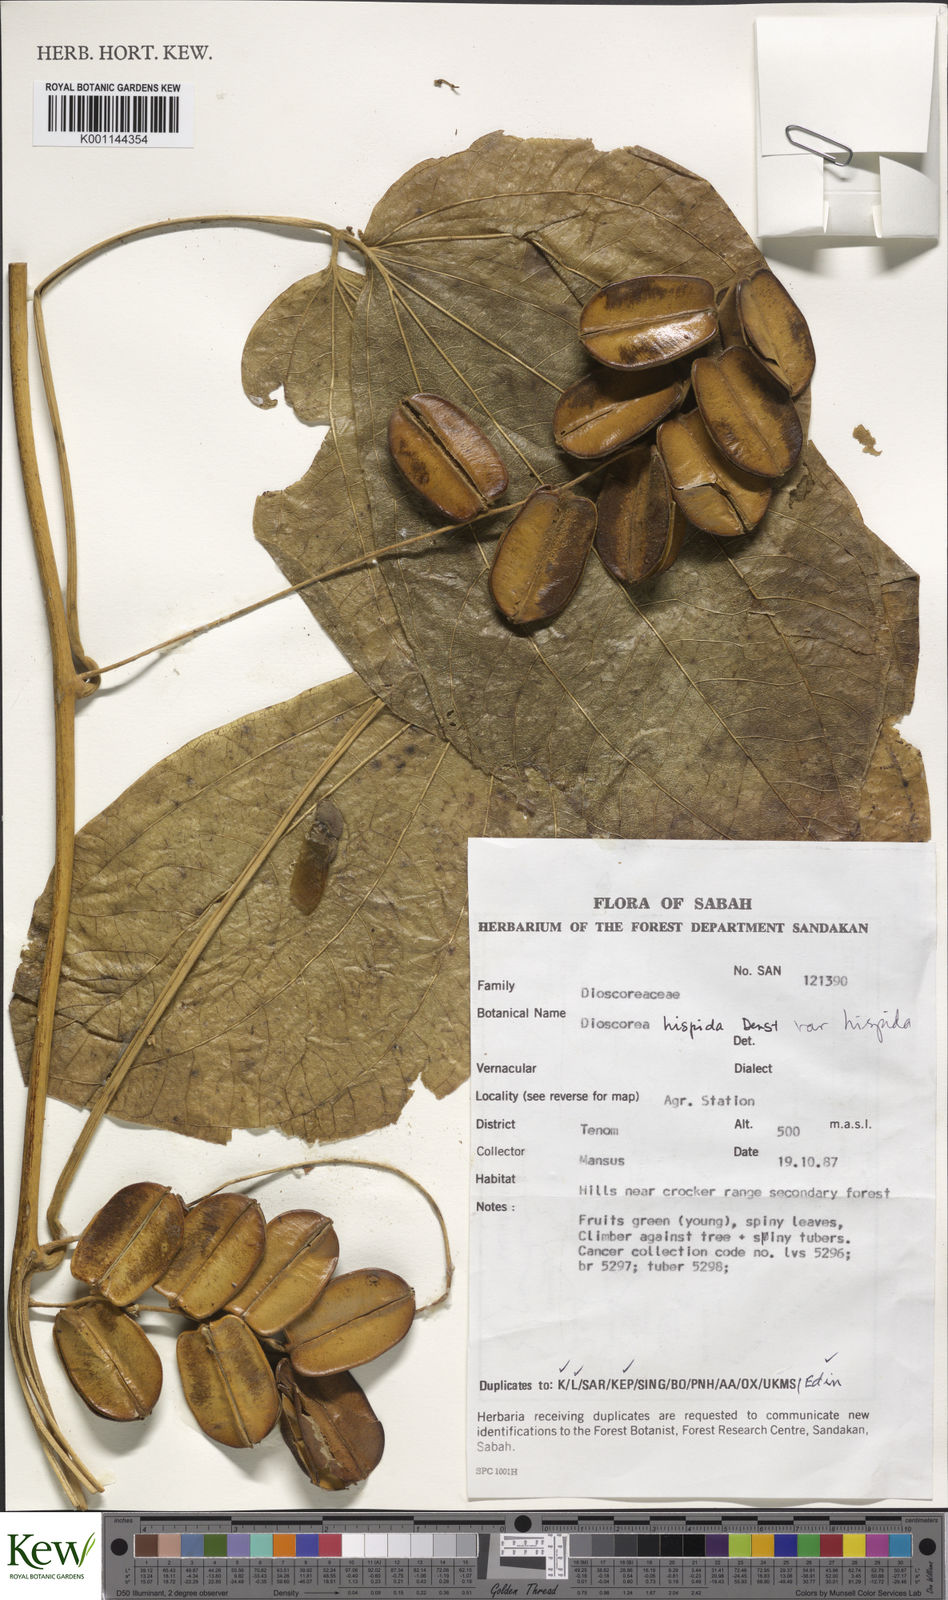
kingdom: Plantae
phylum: Tracheophyta
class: Liliopsida
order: Dioscoreales
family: Dioscoreaceae
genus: Dioscorea
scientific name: Dioscorea hispida
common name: Asiatic bitter yam
